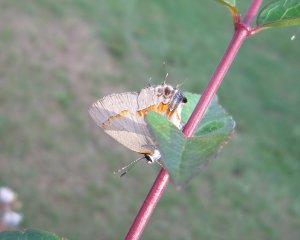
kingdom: Animalia
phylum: Arthropoda
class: Insecta
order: Lepidoptera
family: Lycaenidae
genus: Calycopis
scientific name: Calycopis cecrops
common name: Red-banded Hairstreak
